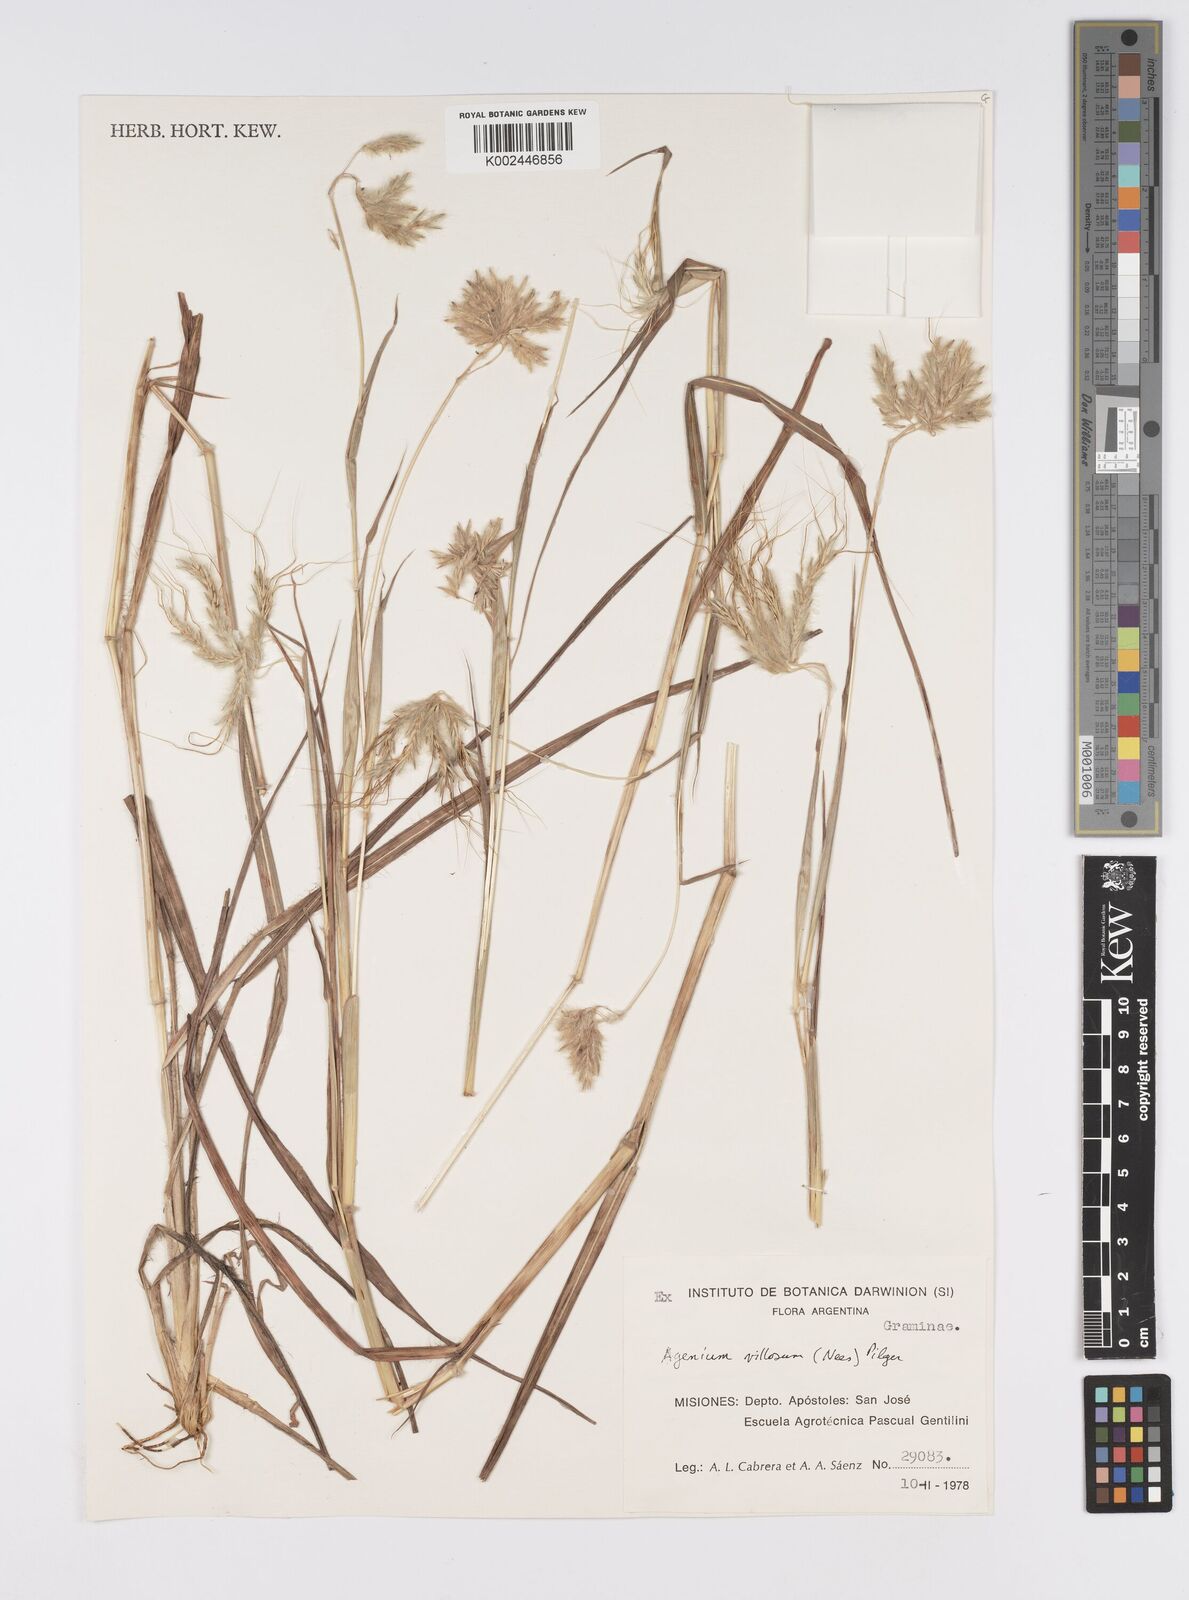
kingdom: Plantae
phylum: Tracheophyta
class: Liliopsida
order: Poales
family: Poaceae
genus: Agenium
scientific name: Agenium villosum
